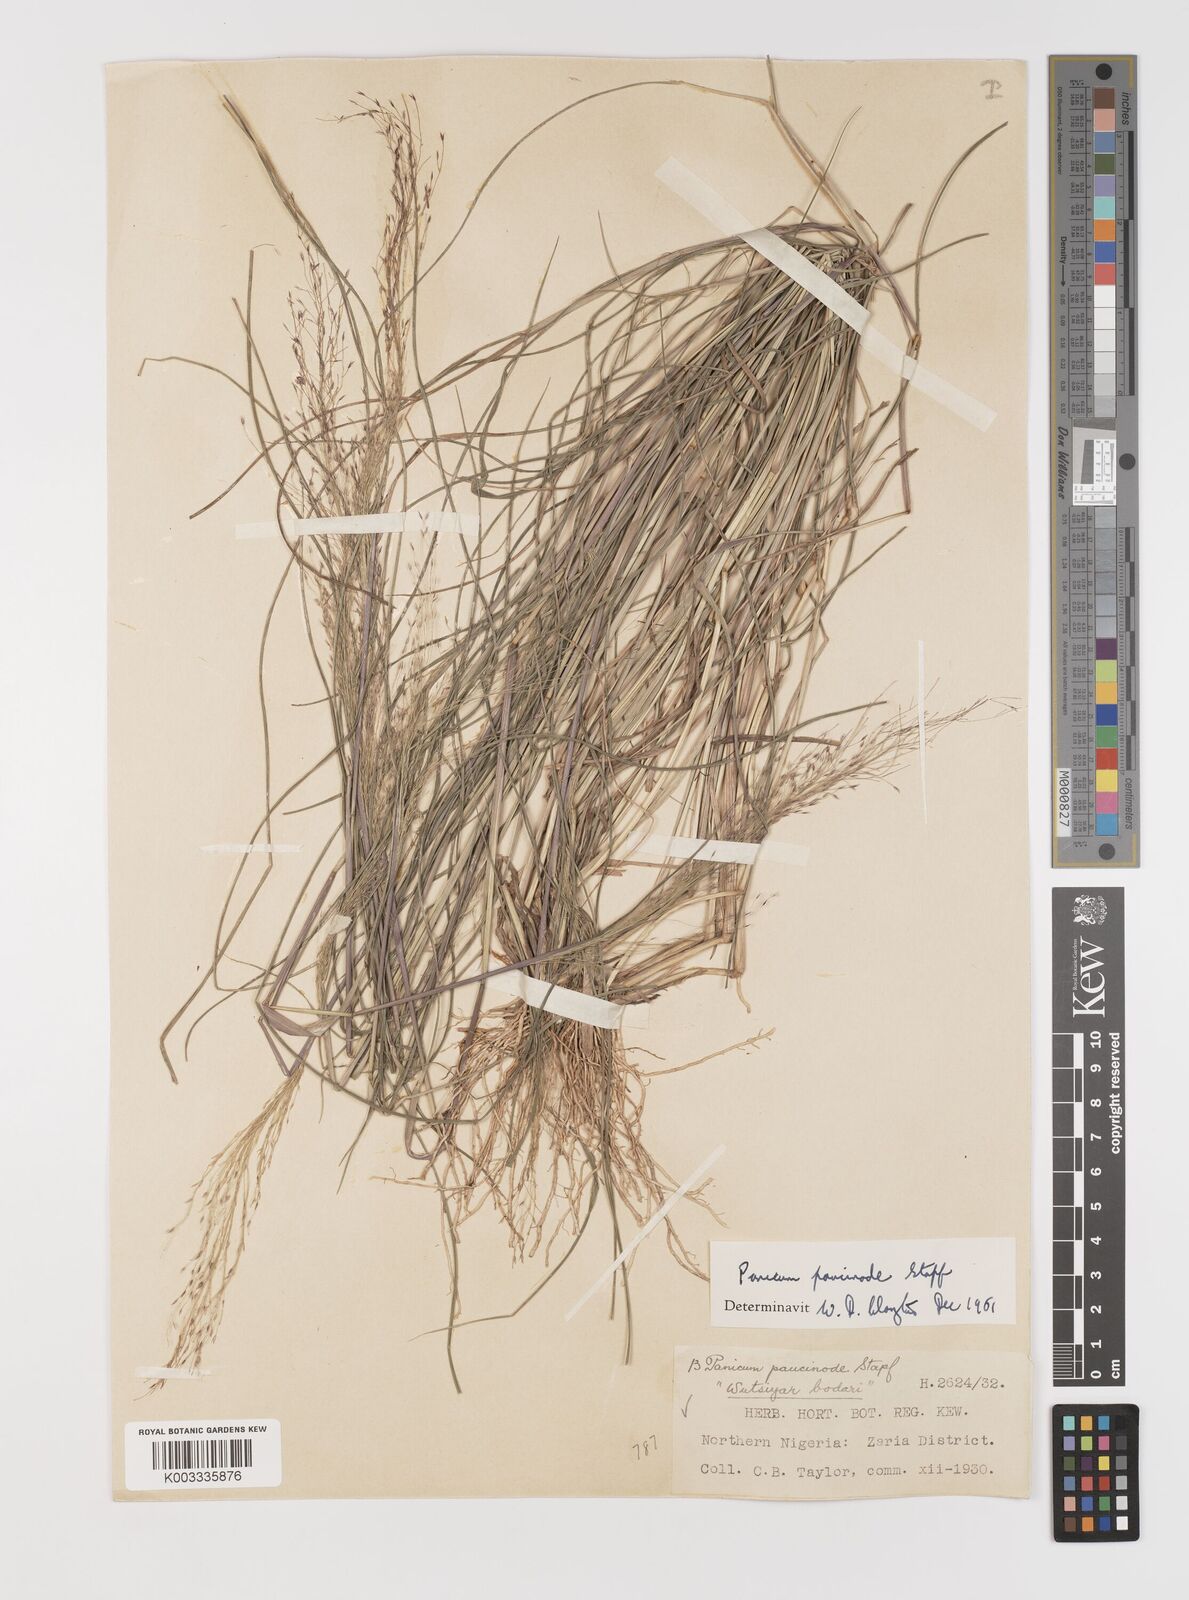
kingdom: Plantae
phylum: Tracheophyta
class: Liliopsida
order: Poales
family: Poaceae
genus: Panicum
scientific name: Panicum paucinode
